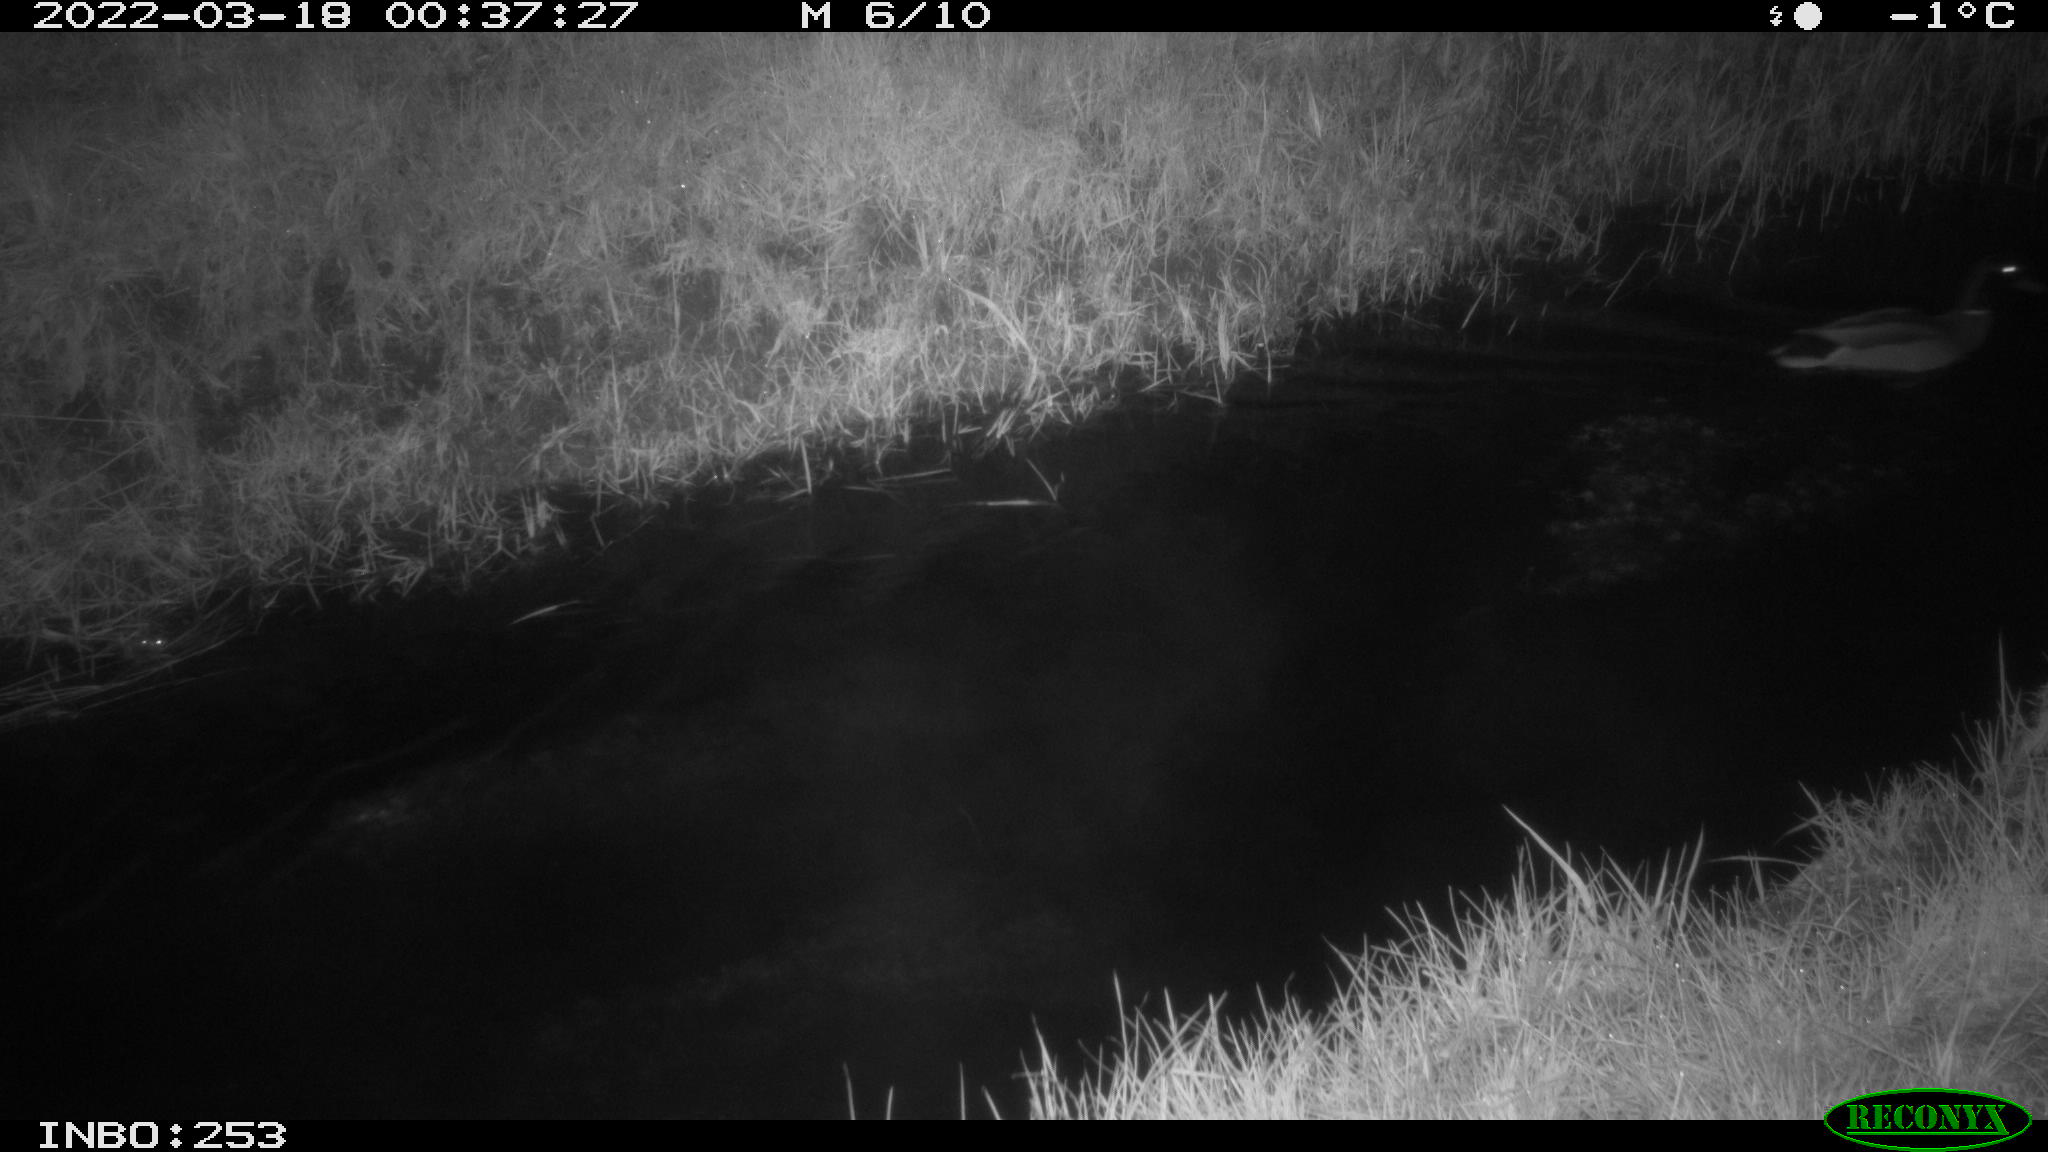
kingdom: Animalia
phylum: Chordata
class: Aves
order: Anseriformes
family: Anatidae
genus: Anas
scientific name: Anas platyrhynchos
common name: Mallard
